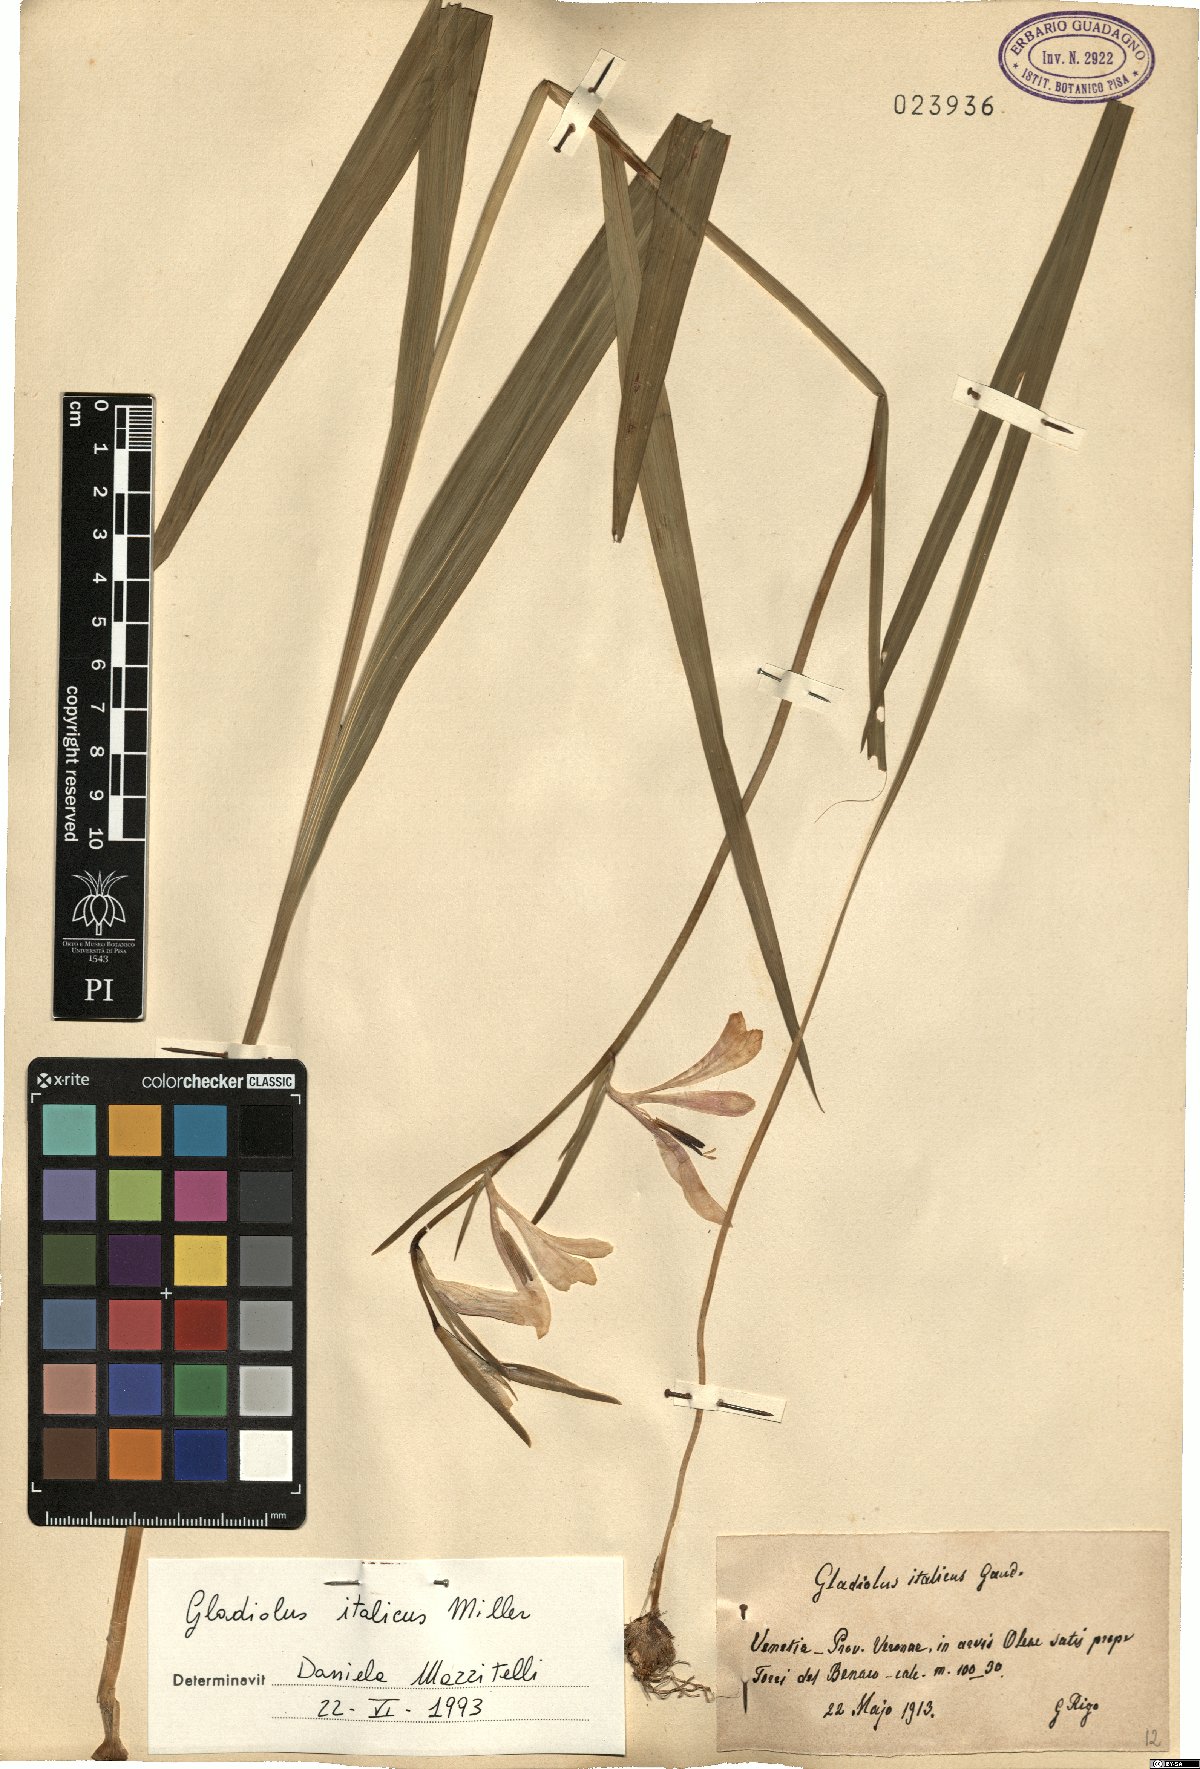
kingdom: Plantae
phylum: Tracheophyta
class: Liliopsida
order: Asparagales
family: Iridaceae
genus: Gladiolus
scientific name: Gladiolus italicus
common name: Field gladiolus
